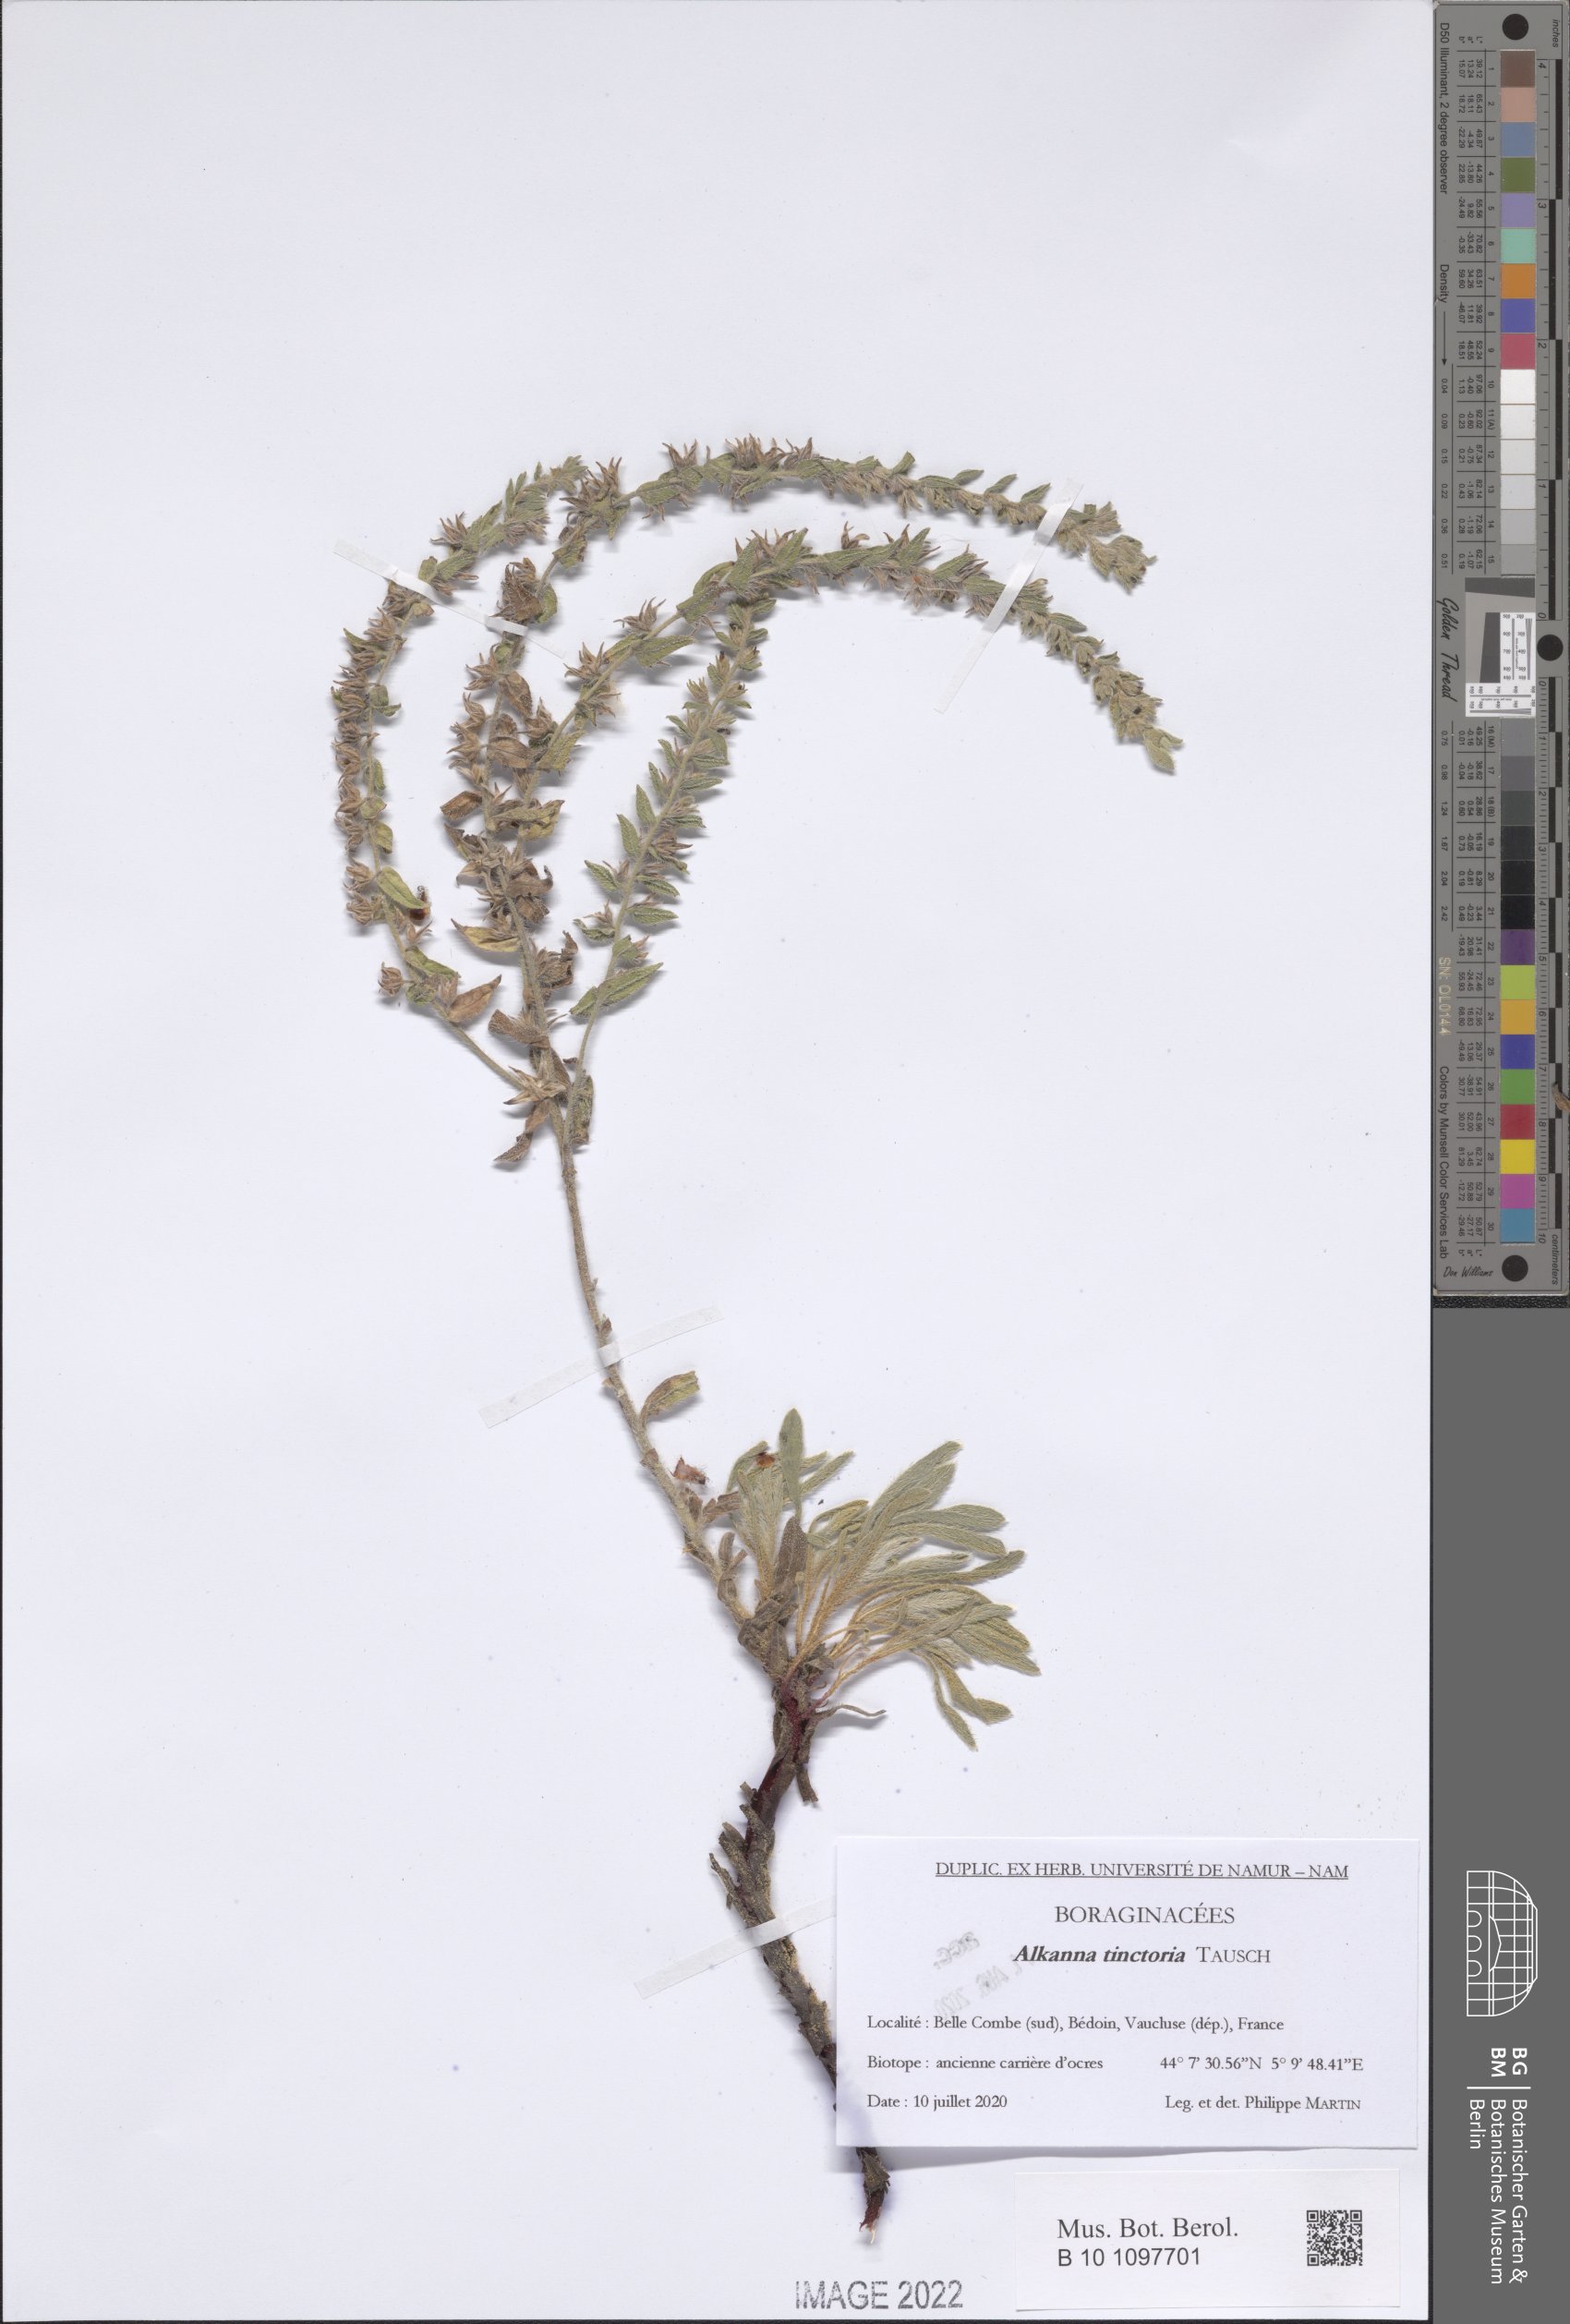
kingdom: Plantae
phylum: Tracheophyta
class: Magnoliopsida
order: Boraginales
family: Boraginaceae
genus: Alkanna
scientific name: Alkanna tinctoria
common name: Dyer's-alkanet
